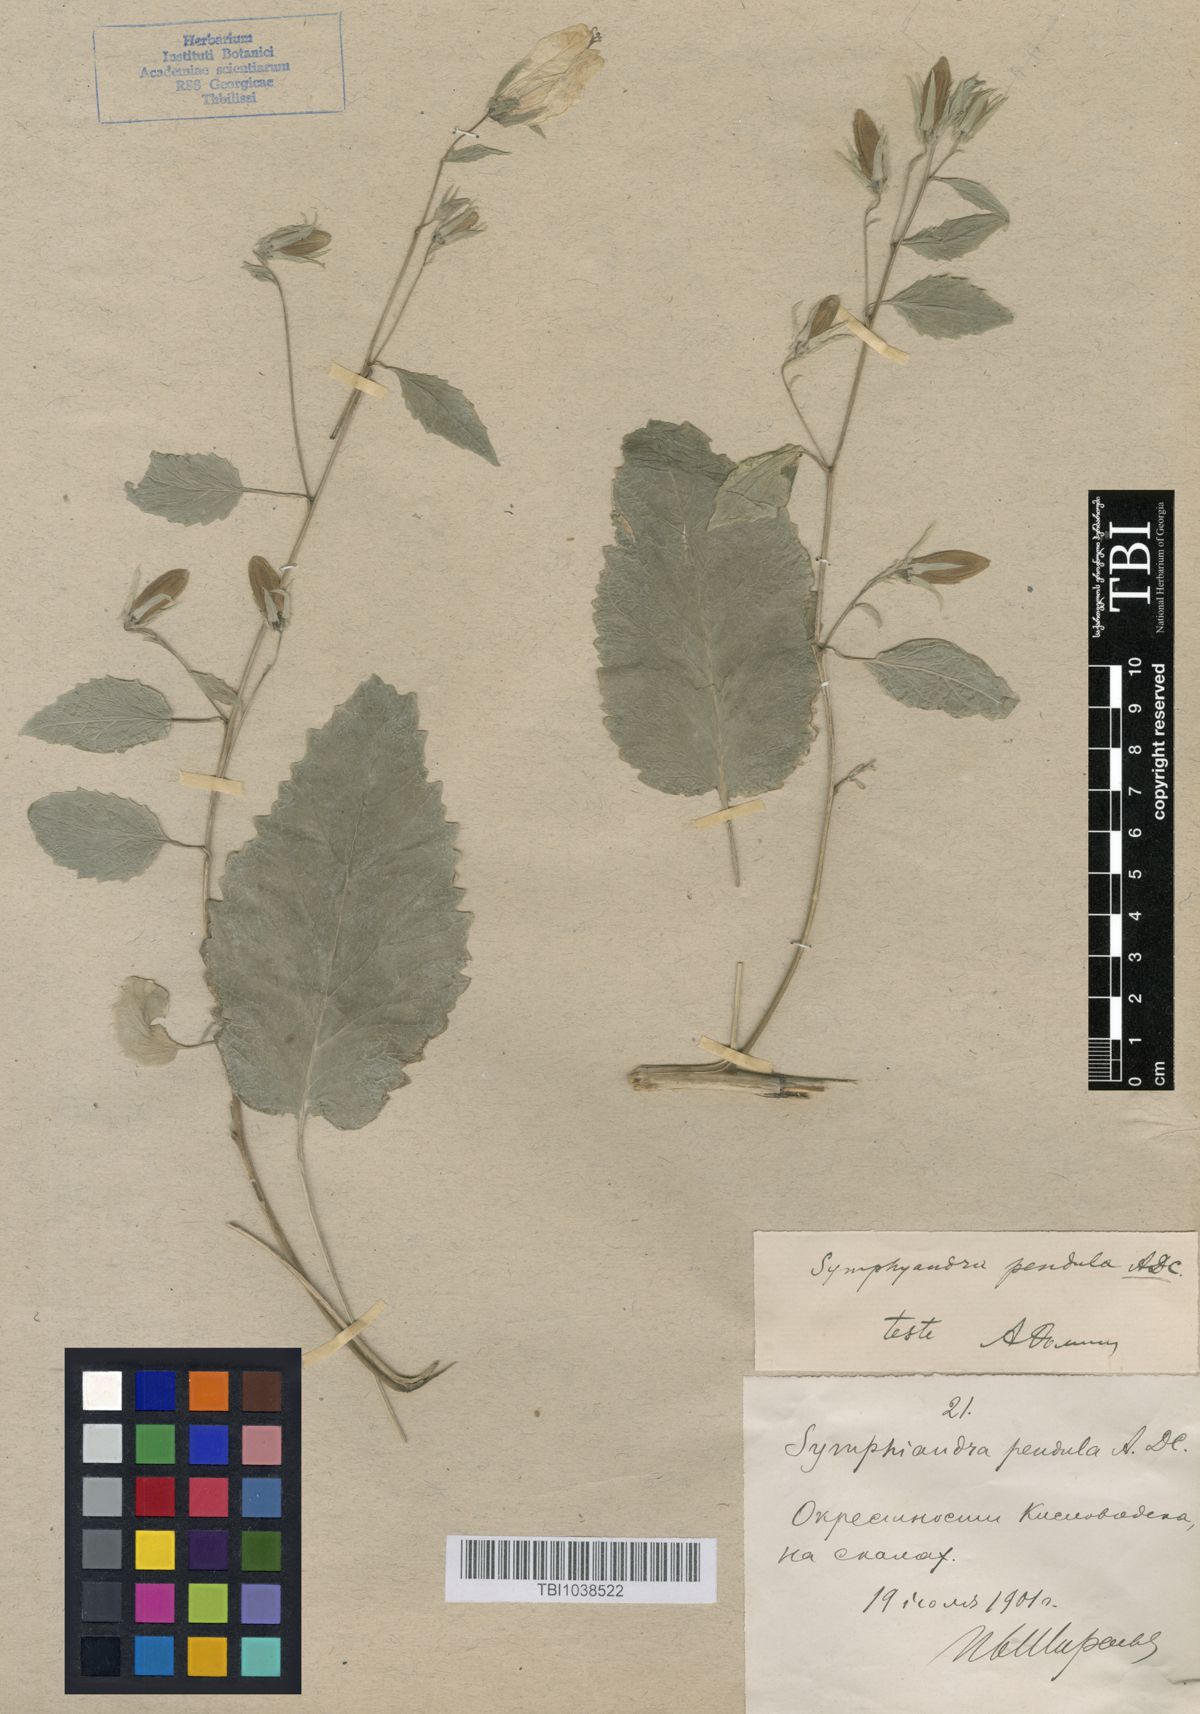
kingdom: Plantae
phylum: Tracheophyta
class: Magnoliopsida
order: Asterales
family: Campanulaceae
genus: Campanula
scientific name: Campanula pendula
